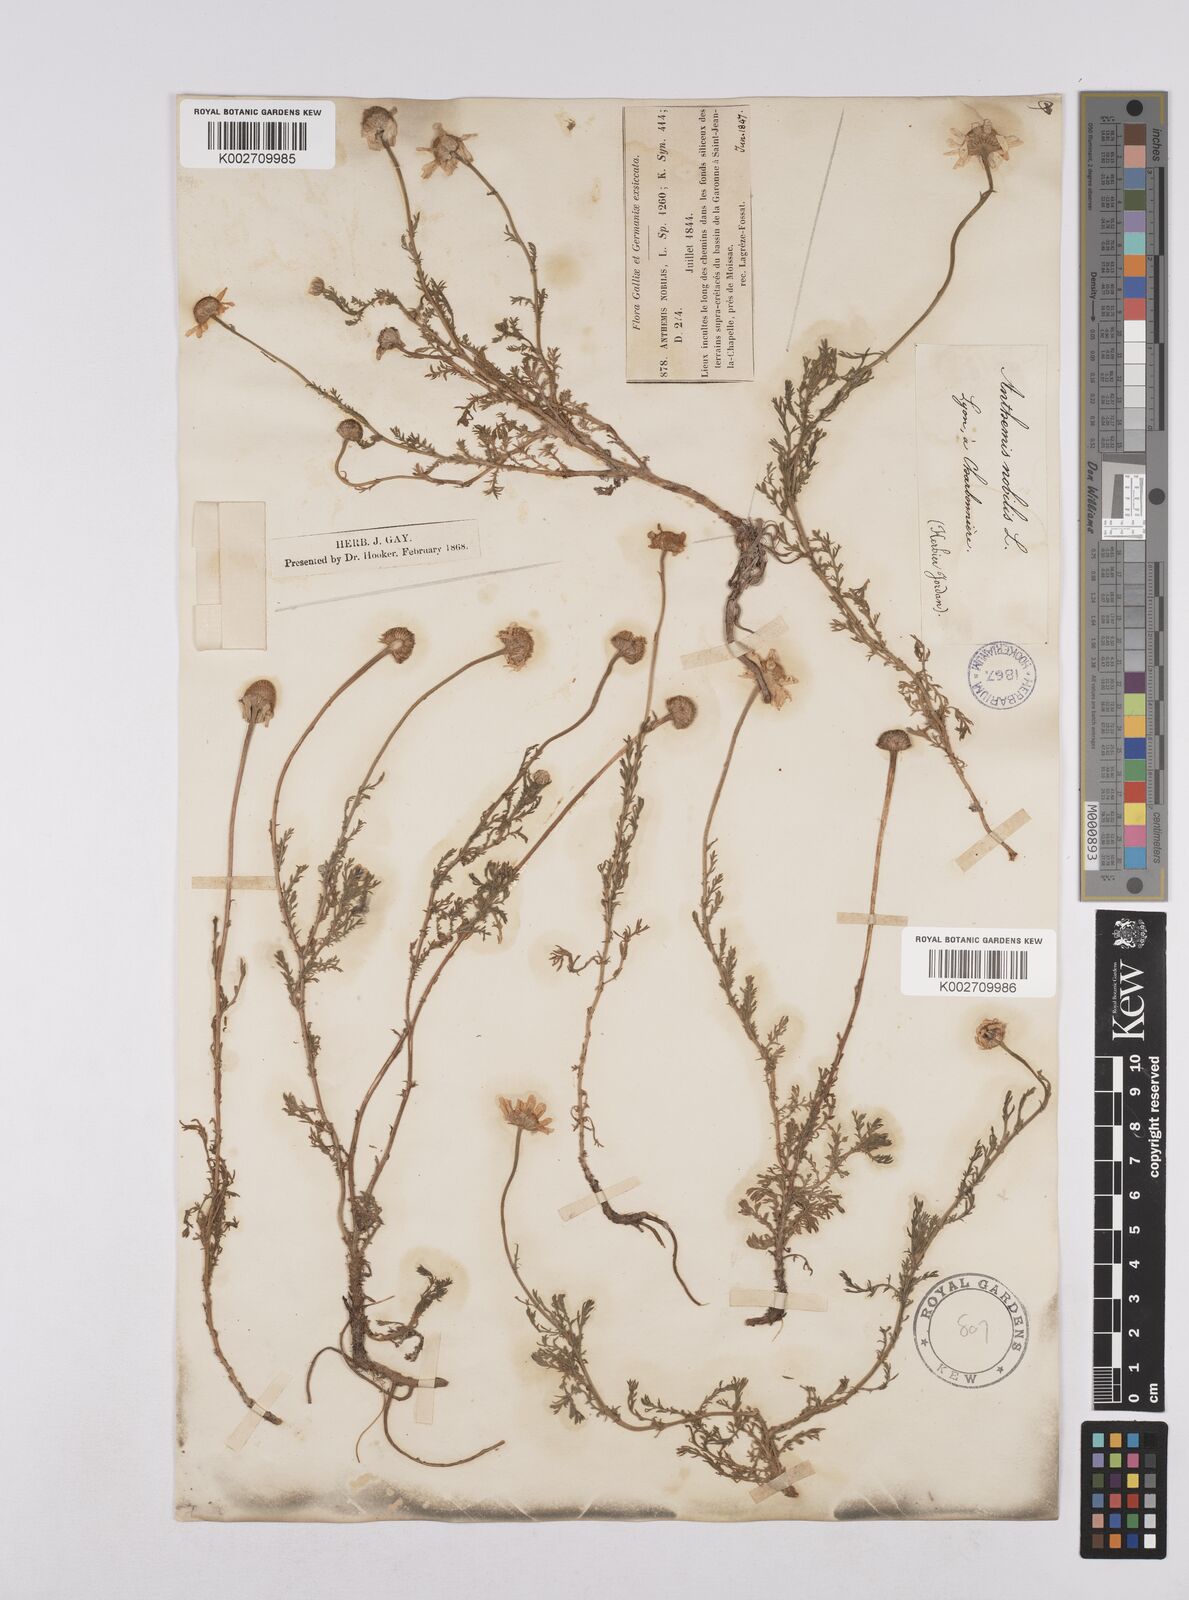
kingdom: Plantae
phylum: Tracheophyta
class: Magnoliopsida
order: Asterales
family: Asteraceae
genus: Chamaemelum
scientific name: Chamaemelum nobile
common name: Roman chamomile
